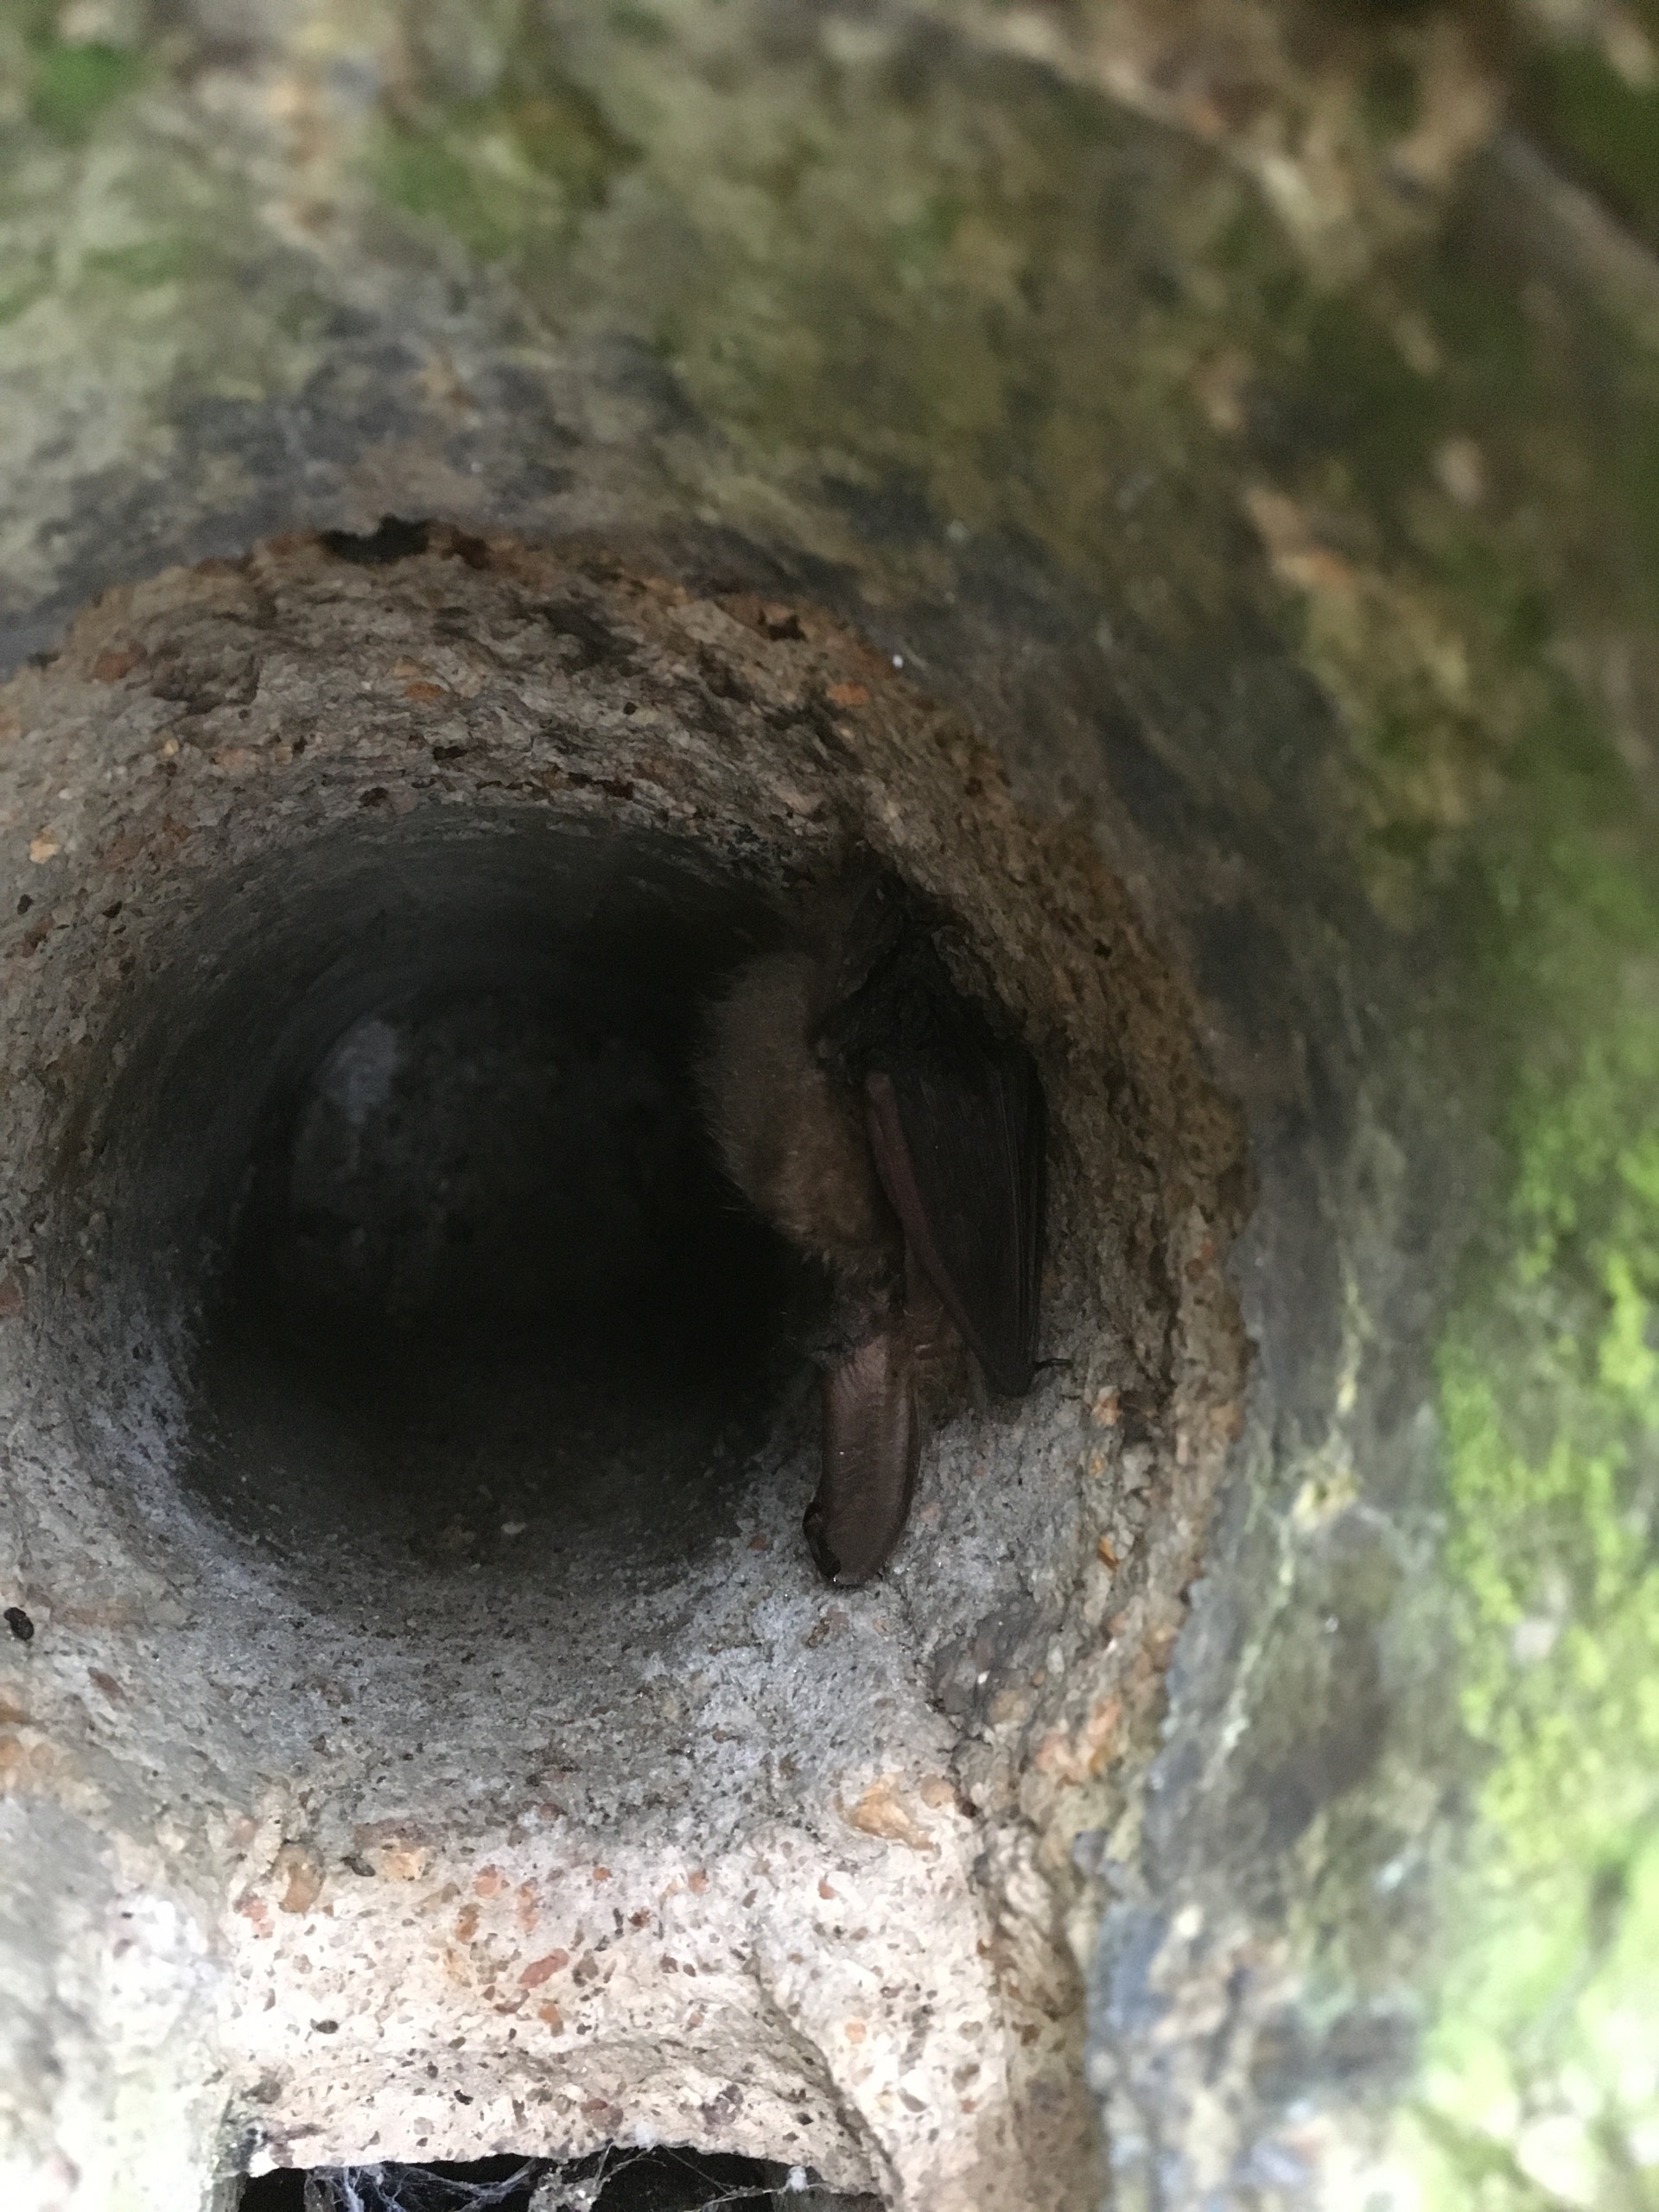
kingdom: Animalia
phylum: Chordata
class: Mammalia
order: Chiroptera
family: Vespertilionidae
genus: Plecotus
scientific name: Plecotus auritus
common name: Brun langøre
